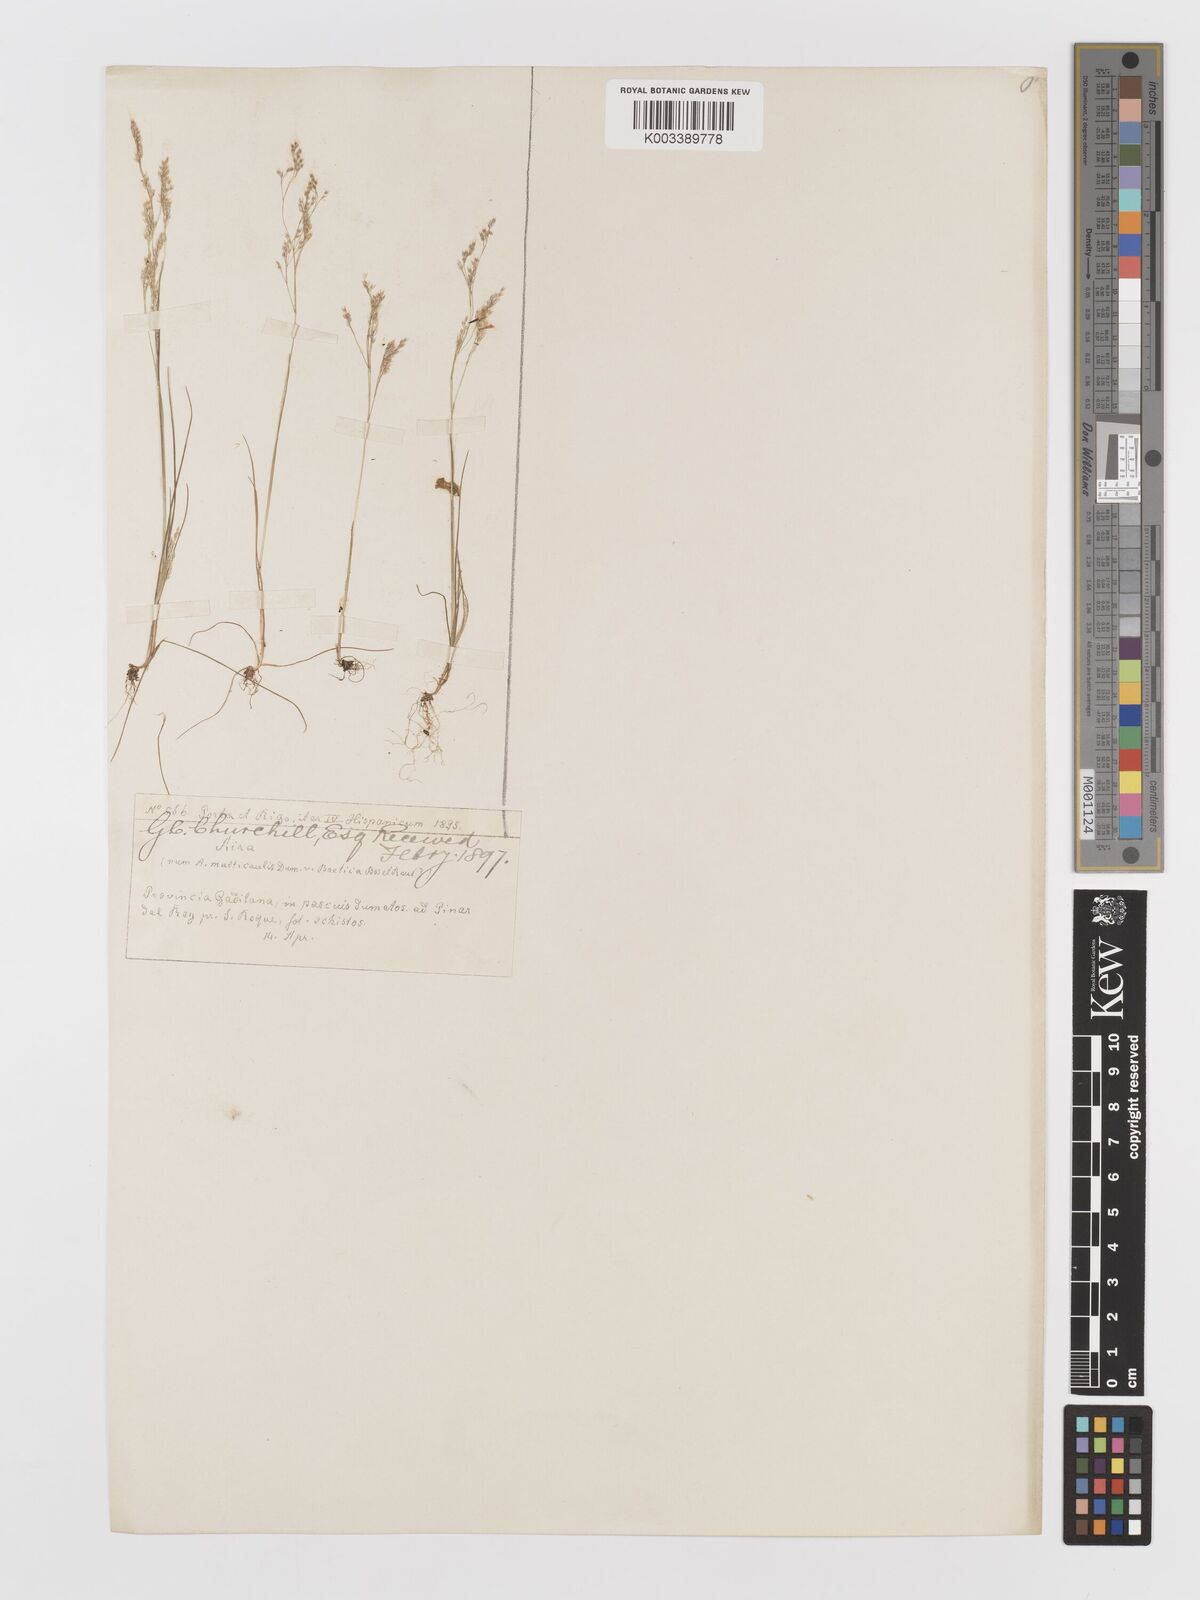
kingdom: Plantae
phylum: Tracheophyta
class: Liliopsida
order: Poales
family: Poaceae
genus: Aira
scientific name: Aira cupaniana
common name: Silver hairgrass
